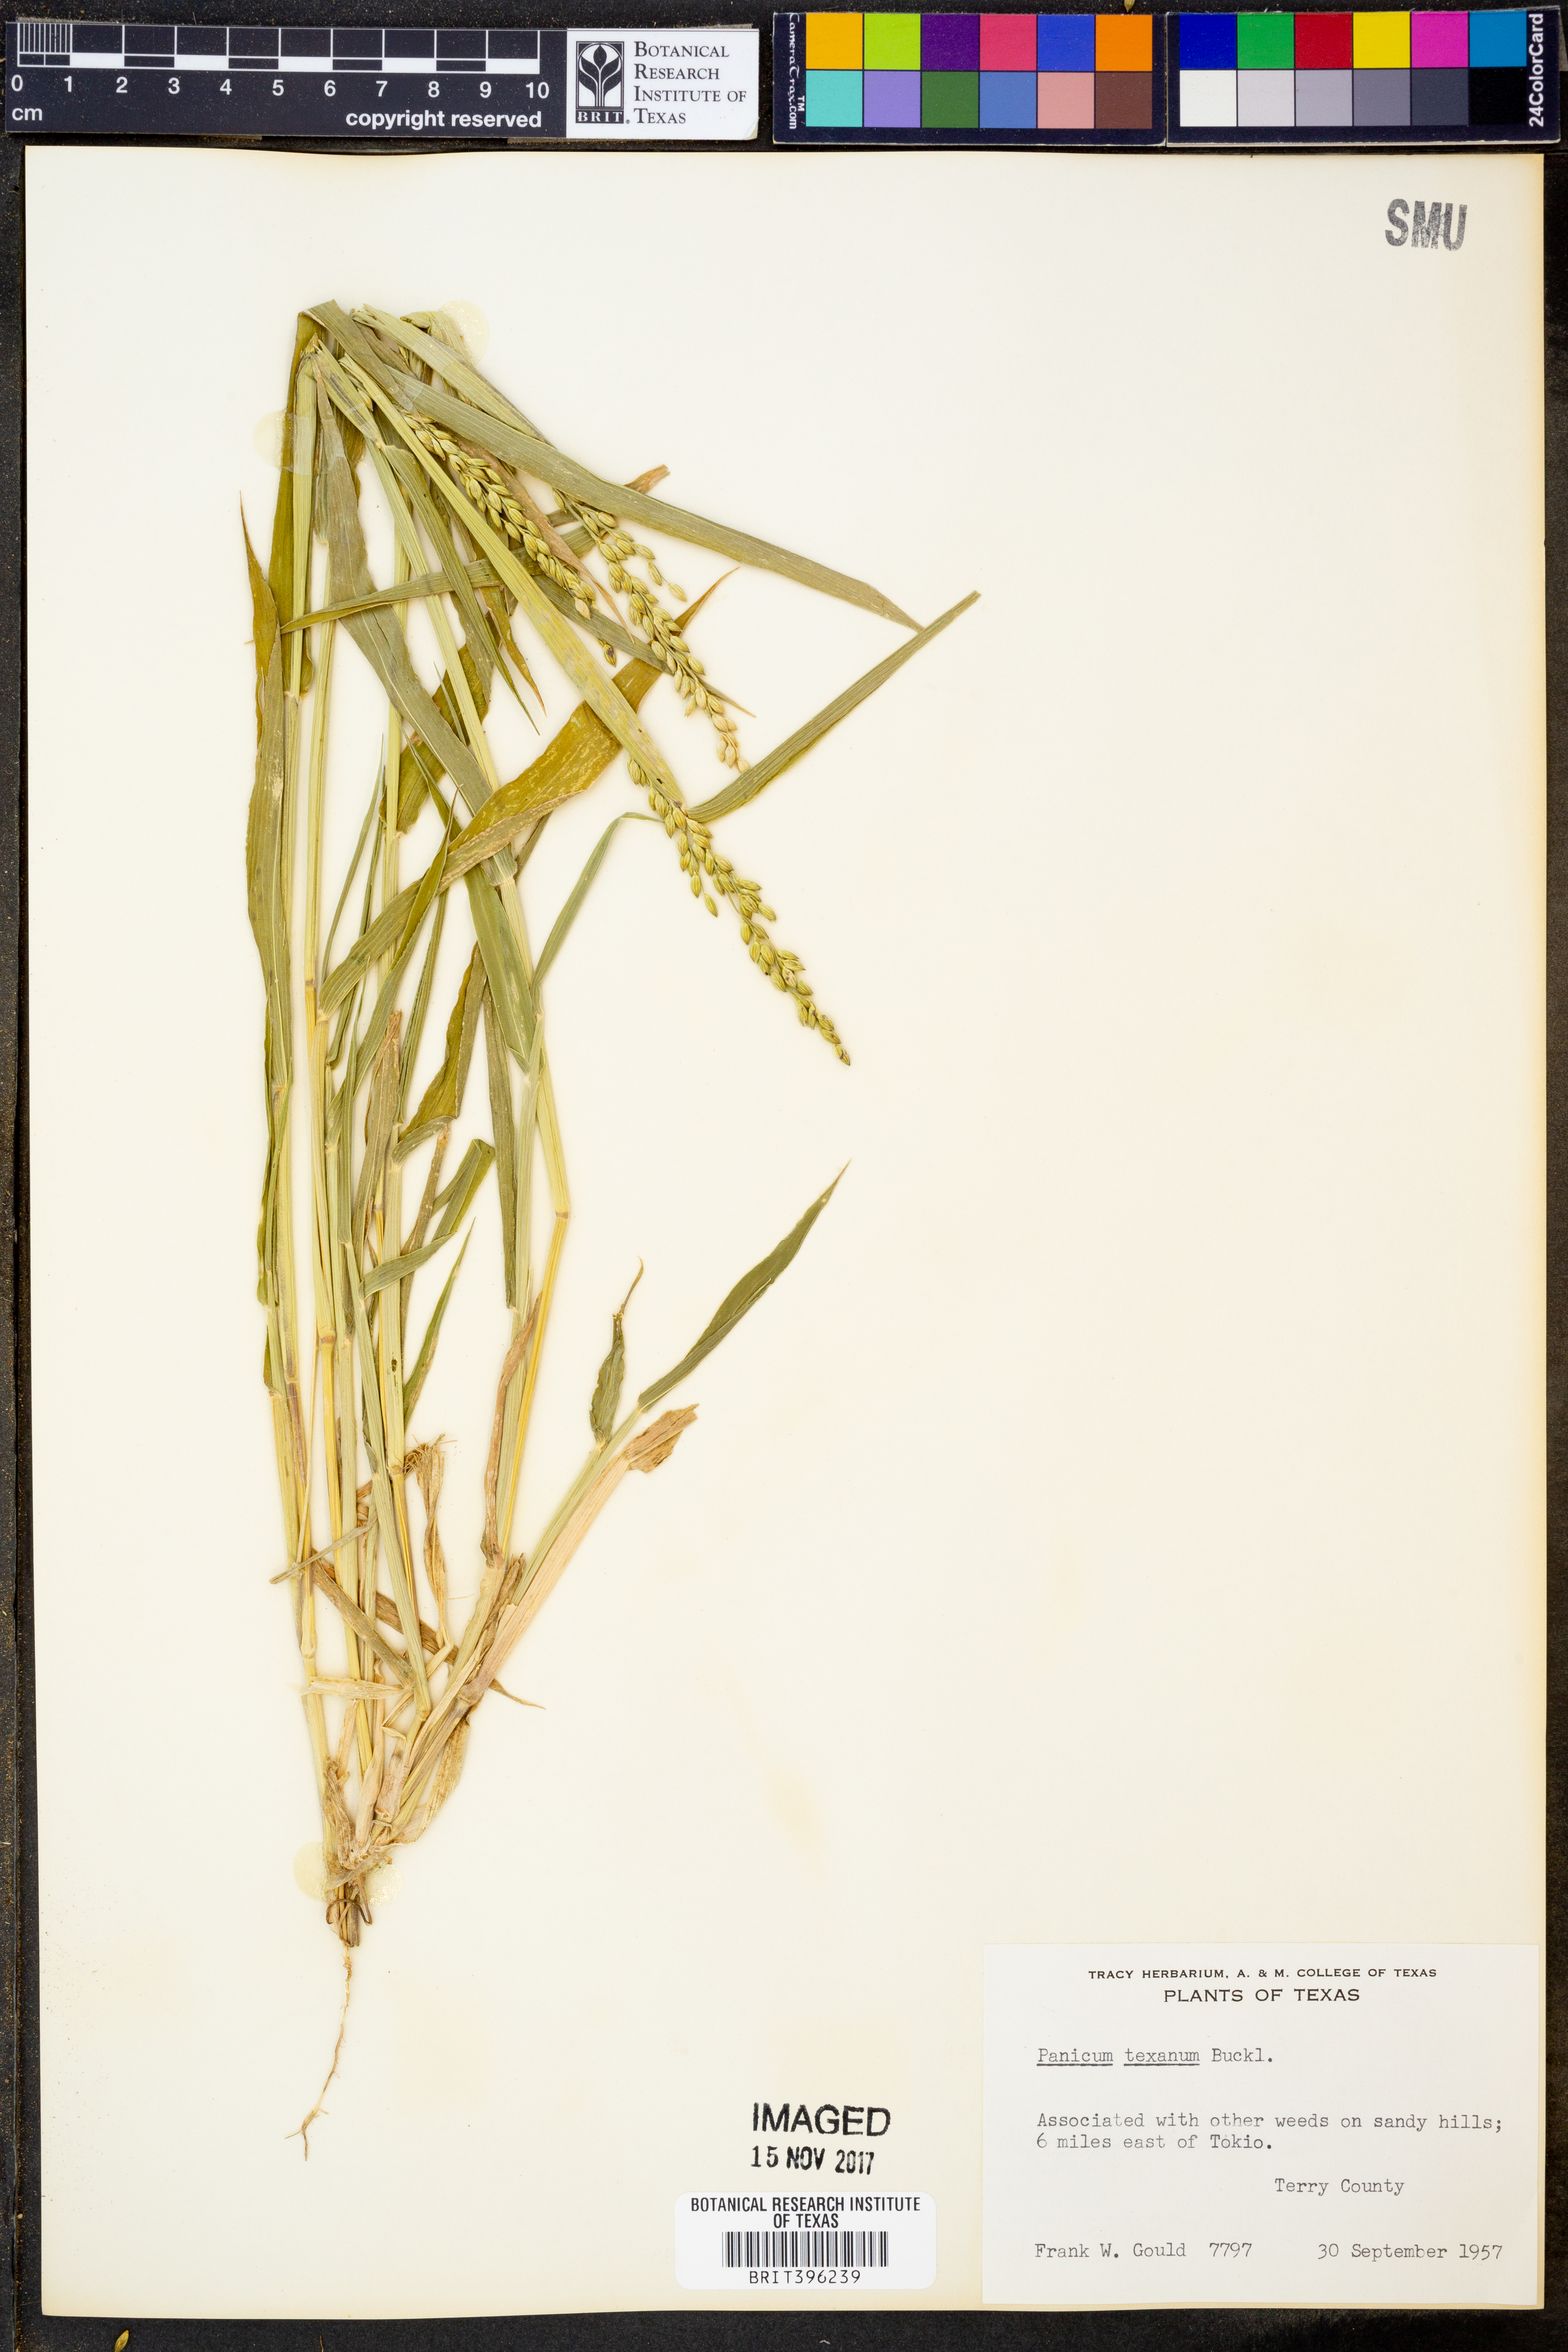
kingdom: Plantae
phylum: Tracheophyta
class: Liliopsida
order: Poales
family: Poaceae
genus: Urochloa
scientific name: Urochloa texana
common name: Texas millet
